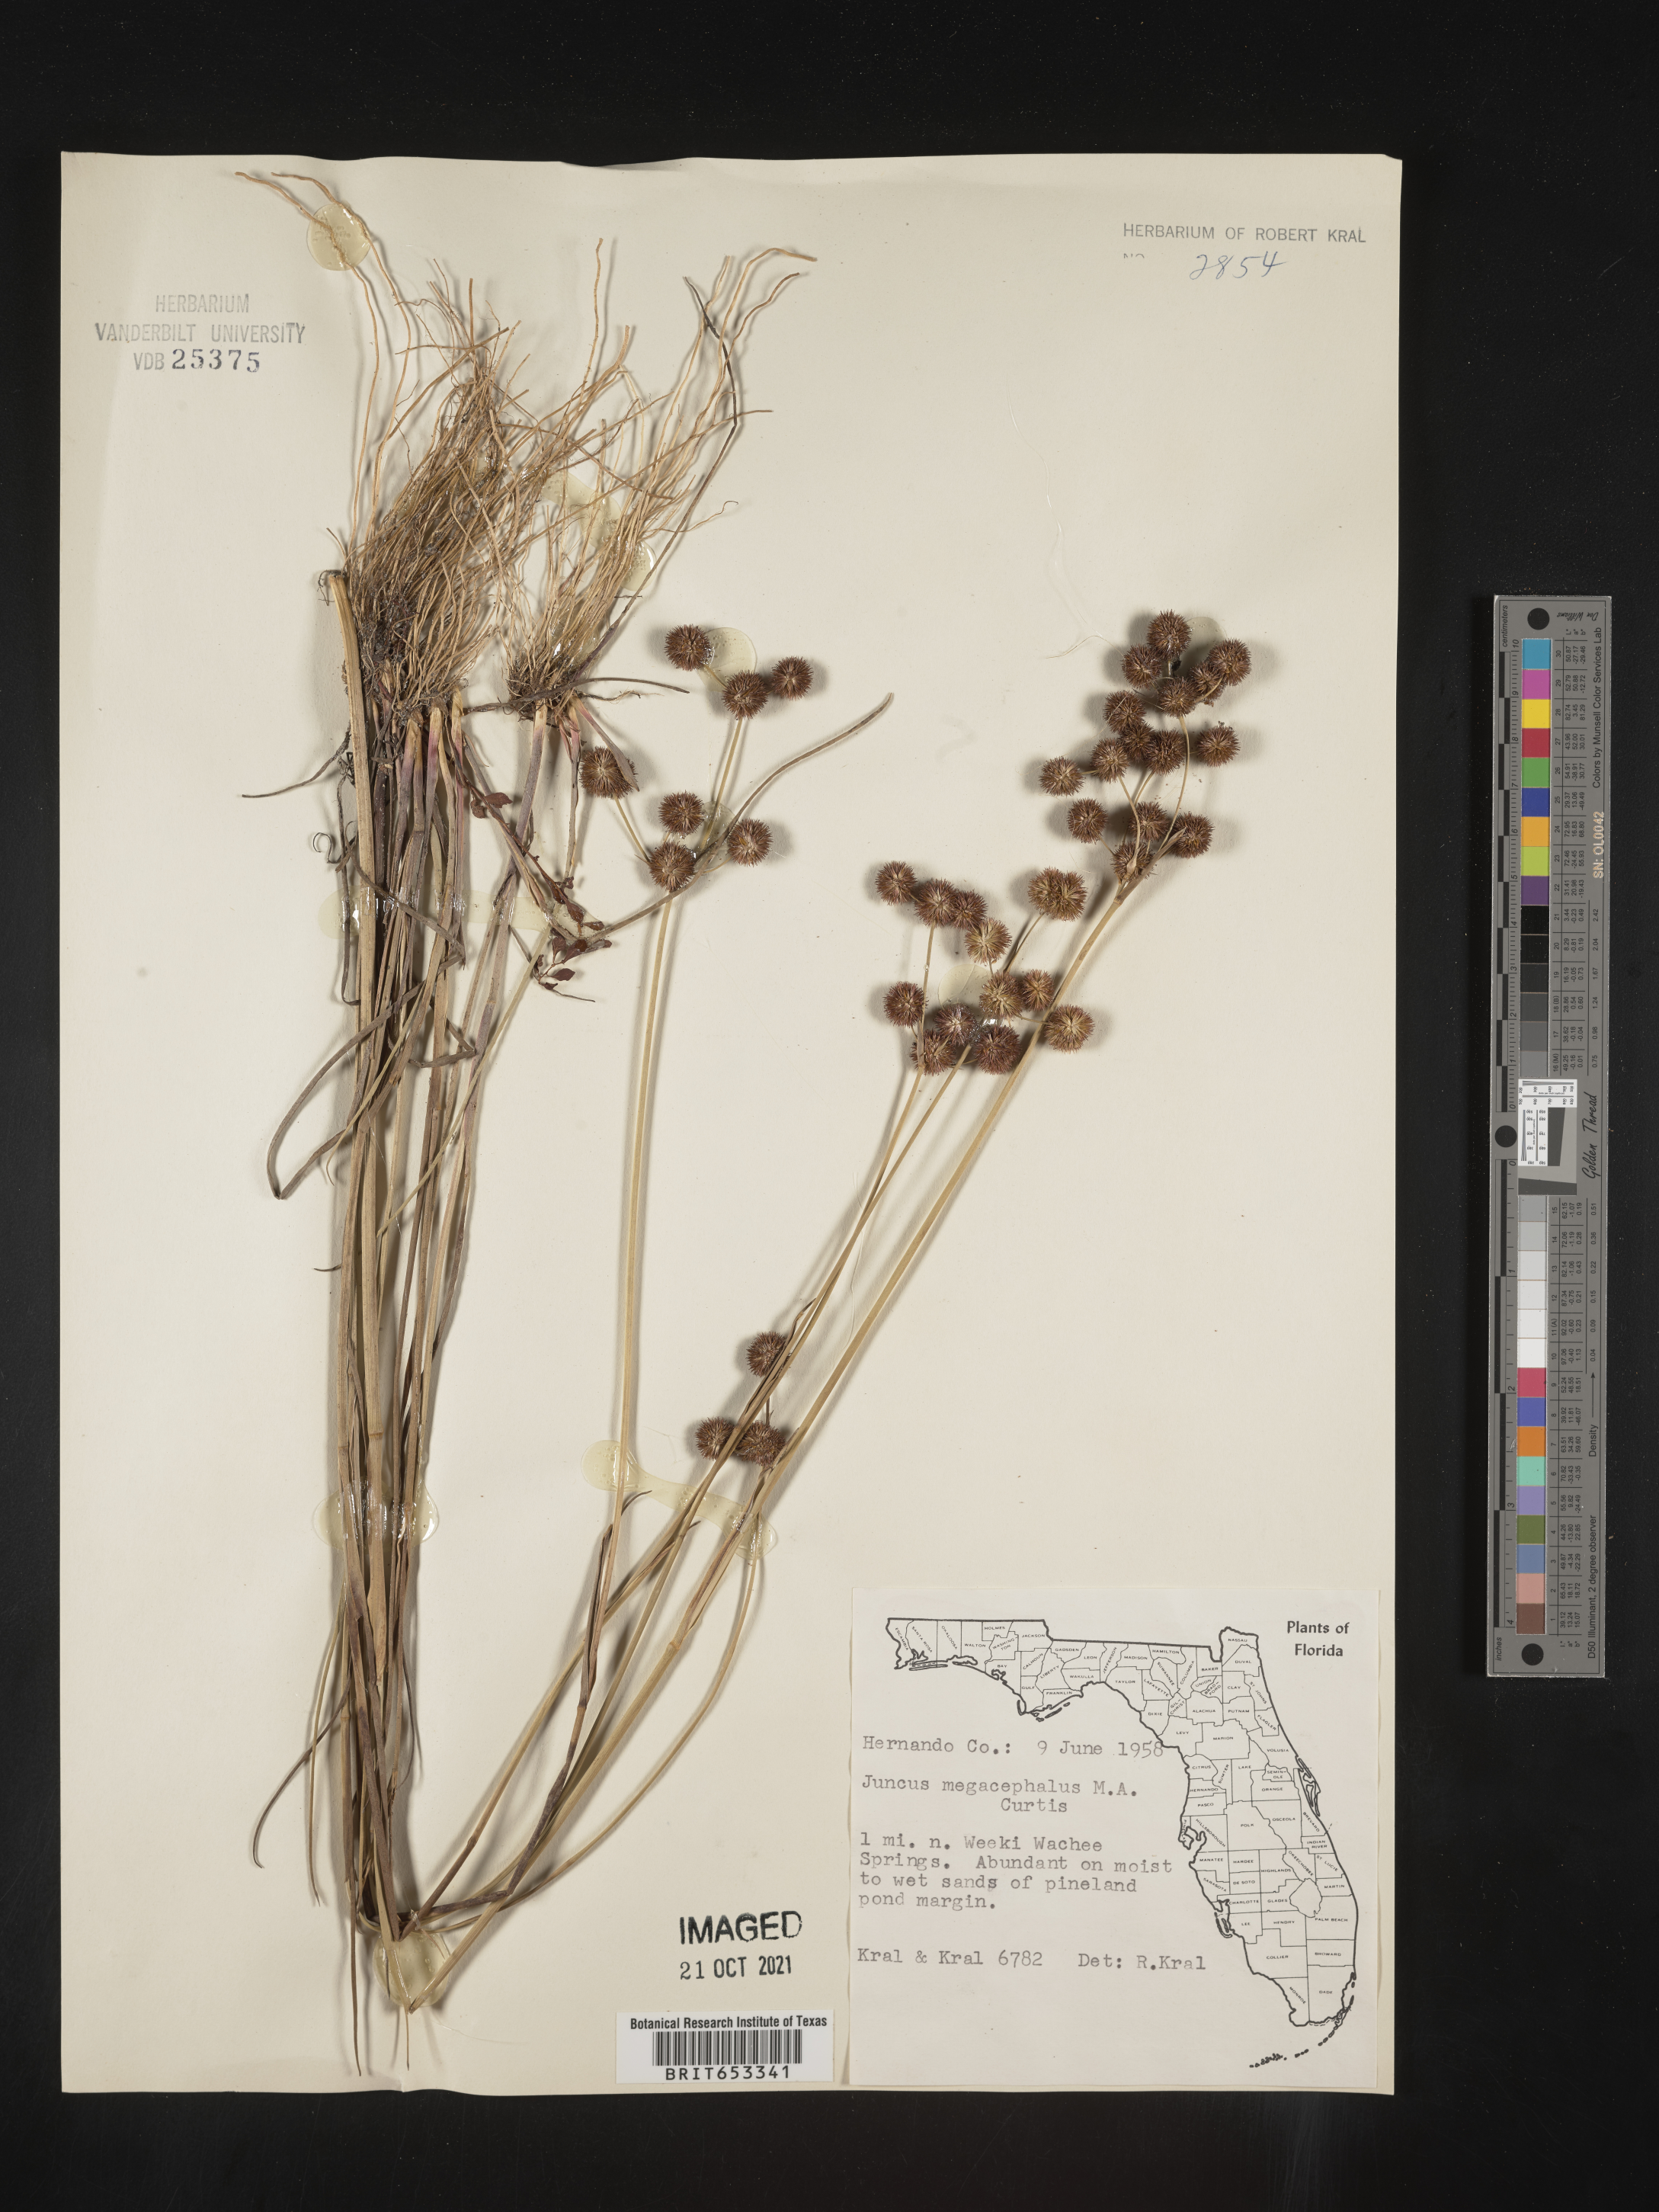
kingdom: Plantae
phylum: Tracheophyta
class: Liliopsida
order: Poales
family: Juncaceae
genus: Juncus
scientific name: Juncus megacephalus
